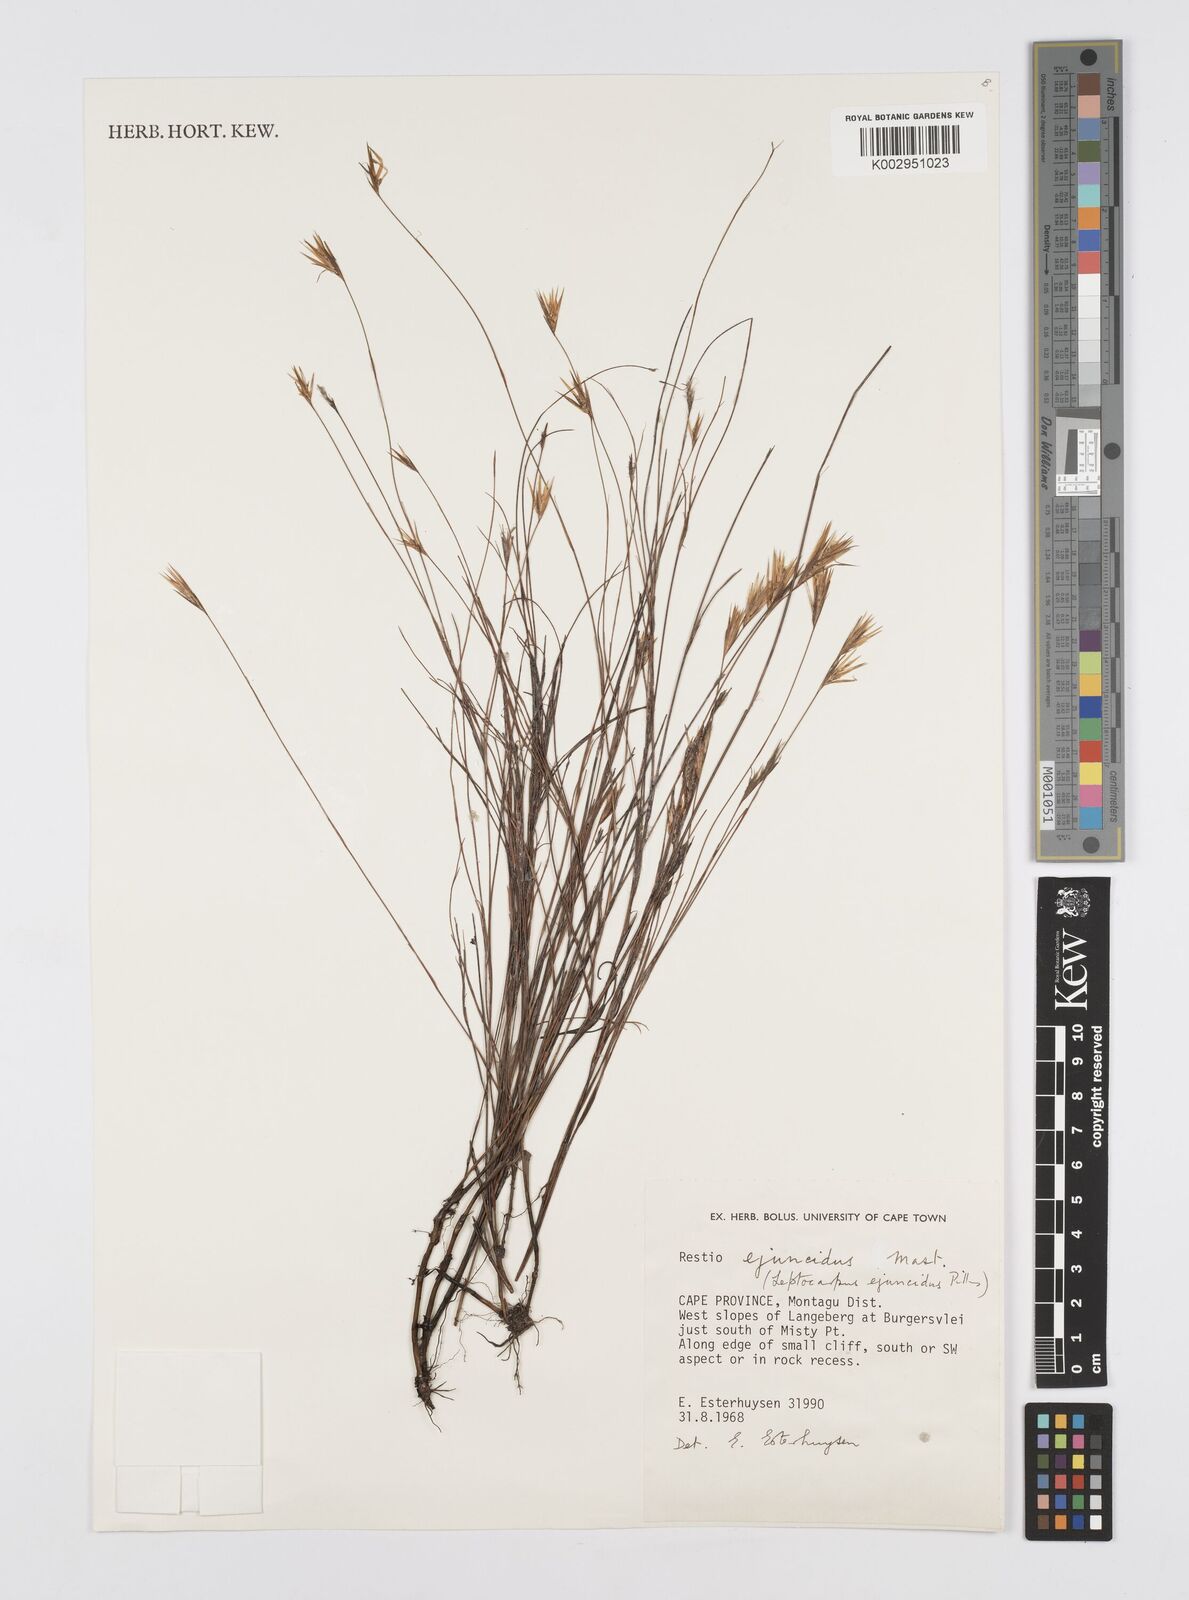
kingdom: Plantae
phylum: Tracheophyta
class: Liliopsida
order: Poales
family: Restionaceae
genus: Restio
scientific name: Restio ejuncidus
